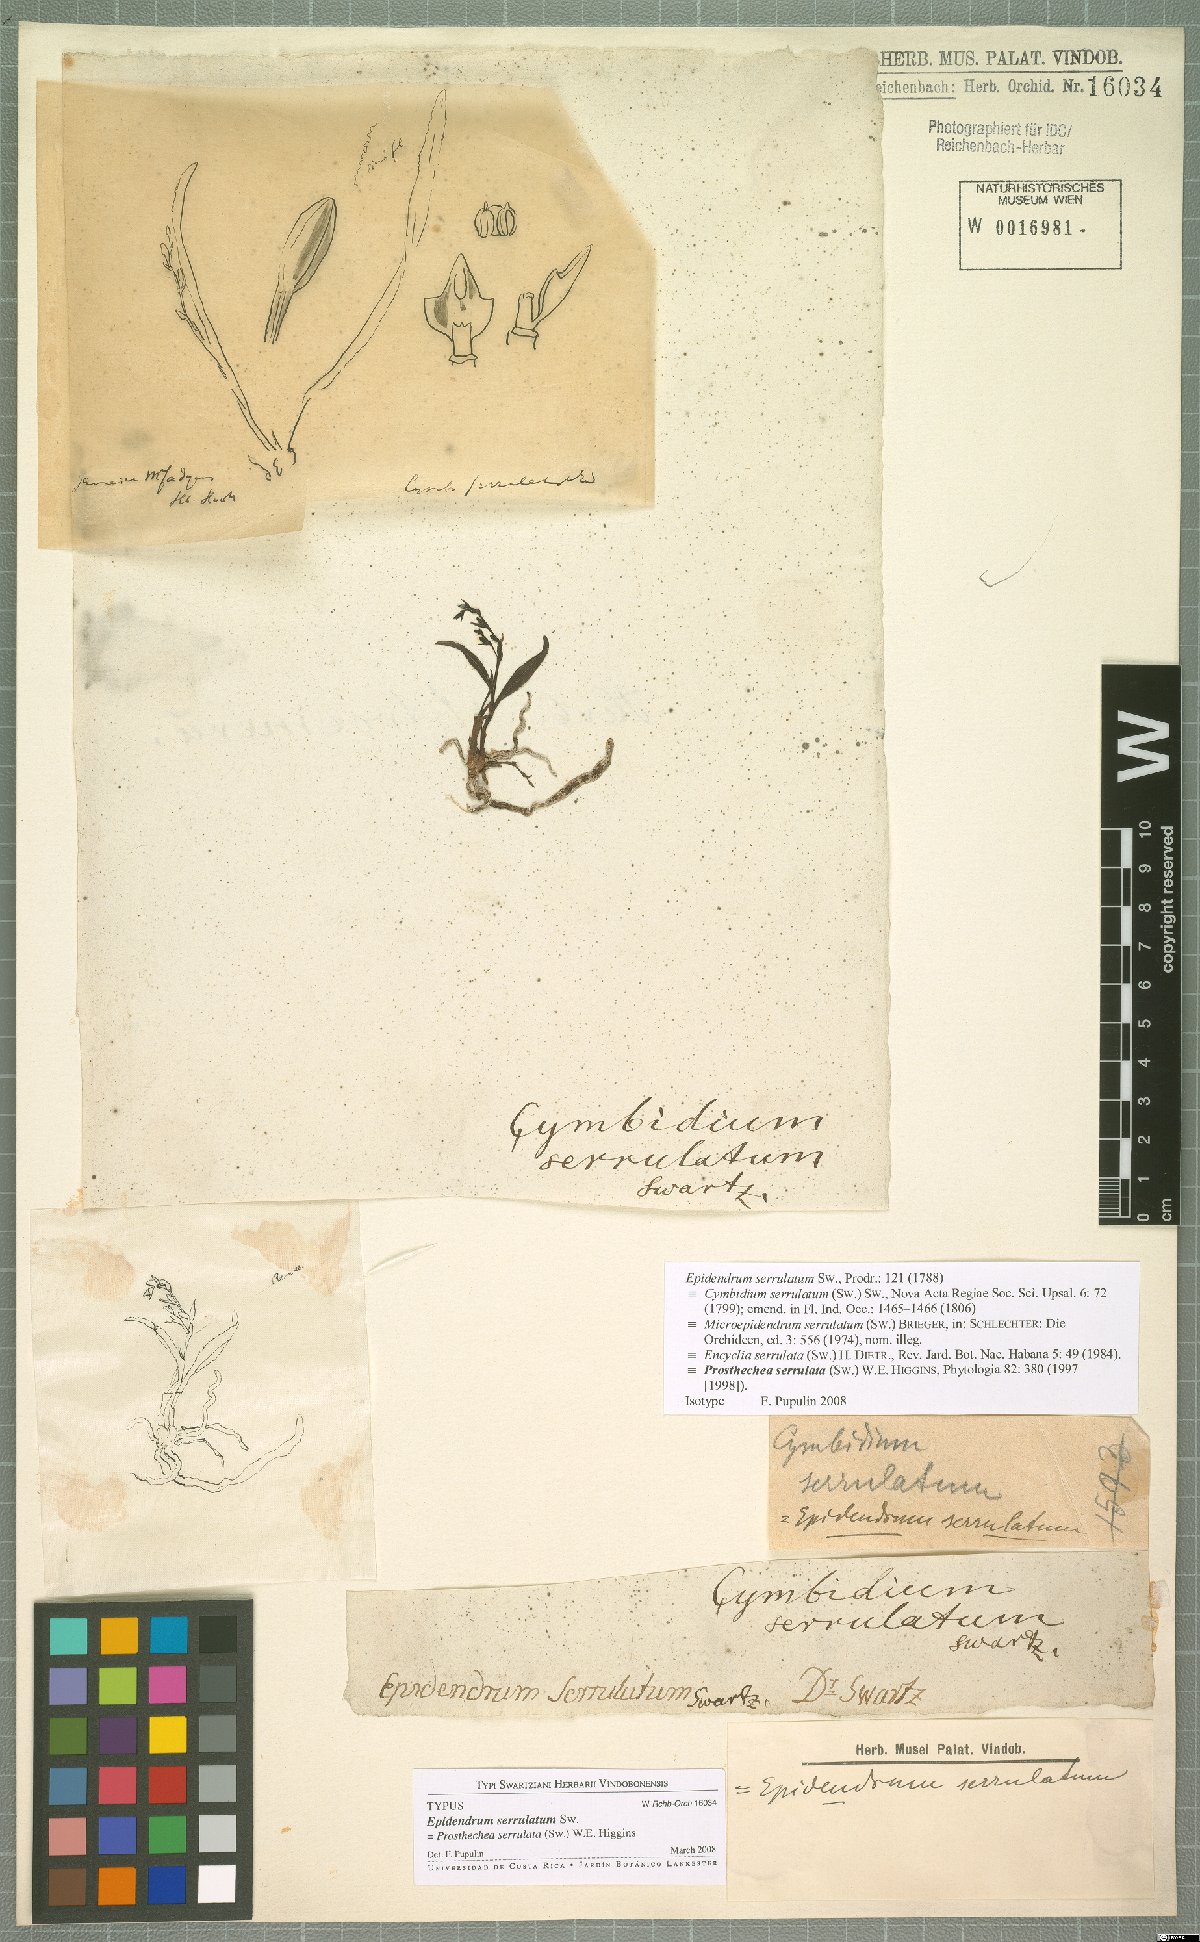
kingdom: Plantae
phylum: Tracheophyta
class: Liliopsida
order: Asparagales
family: Orchidaceae
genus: Epidendrum
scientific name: Epidendrum serrulatum
